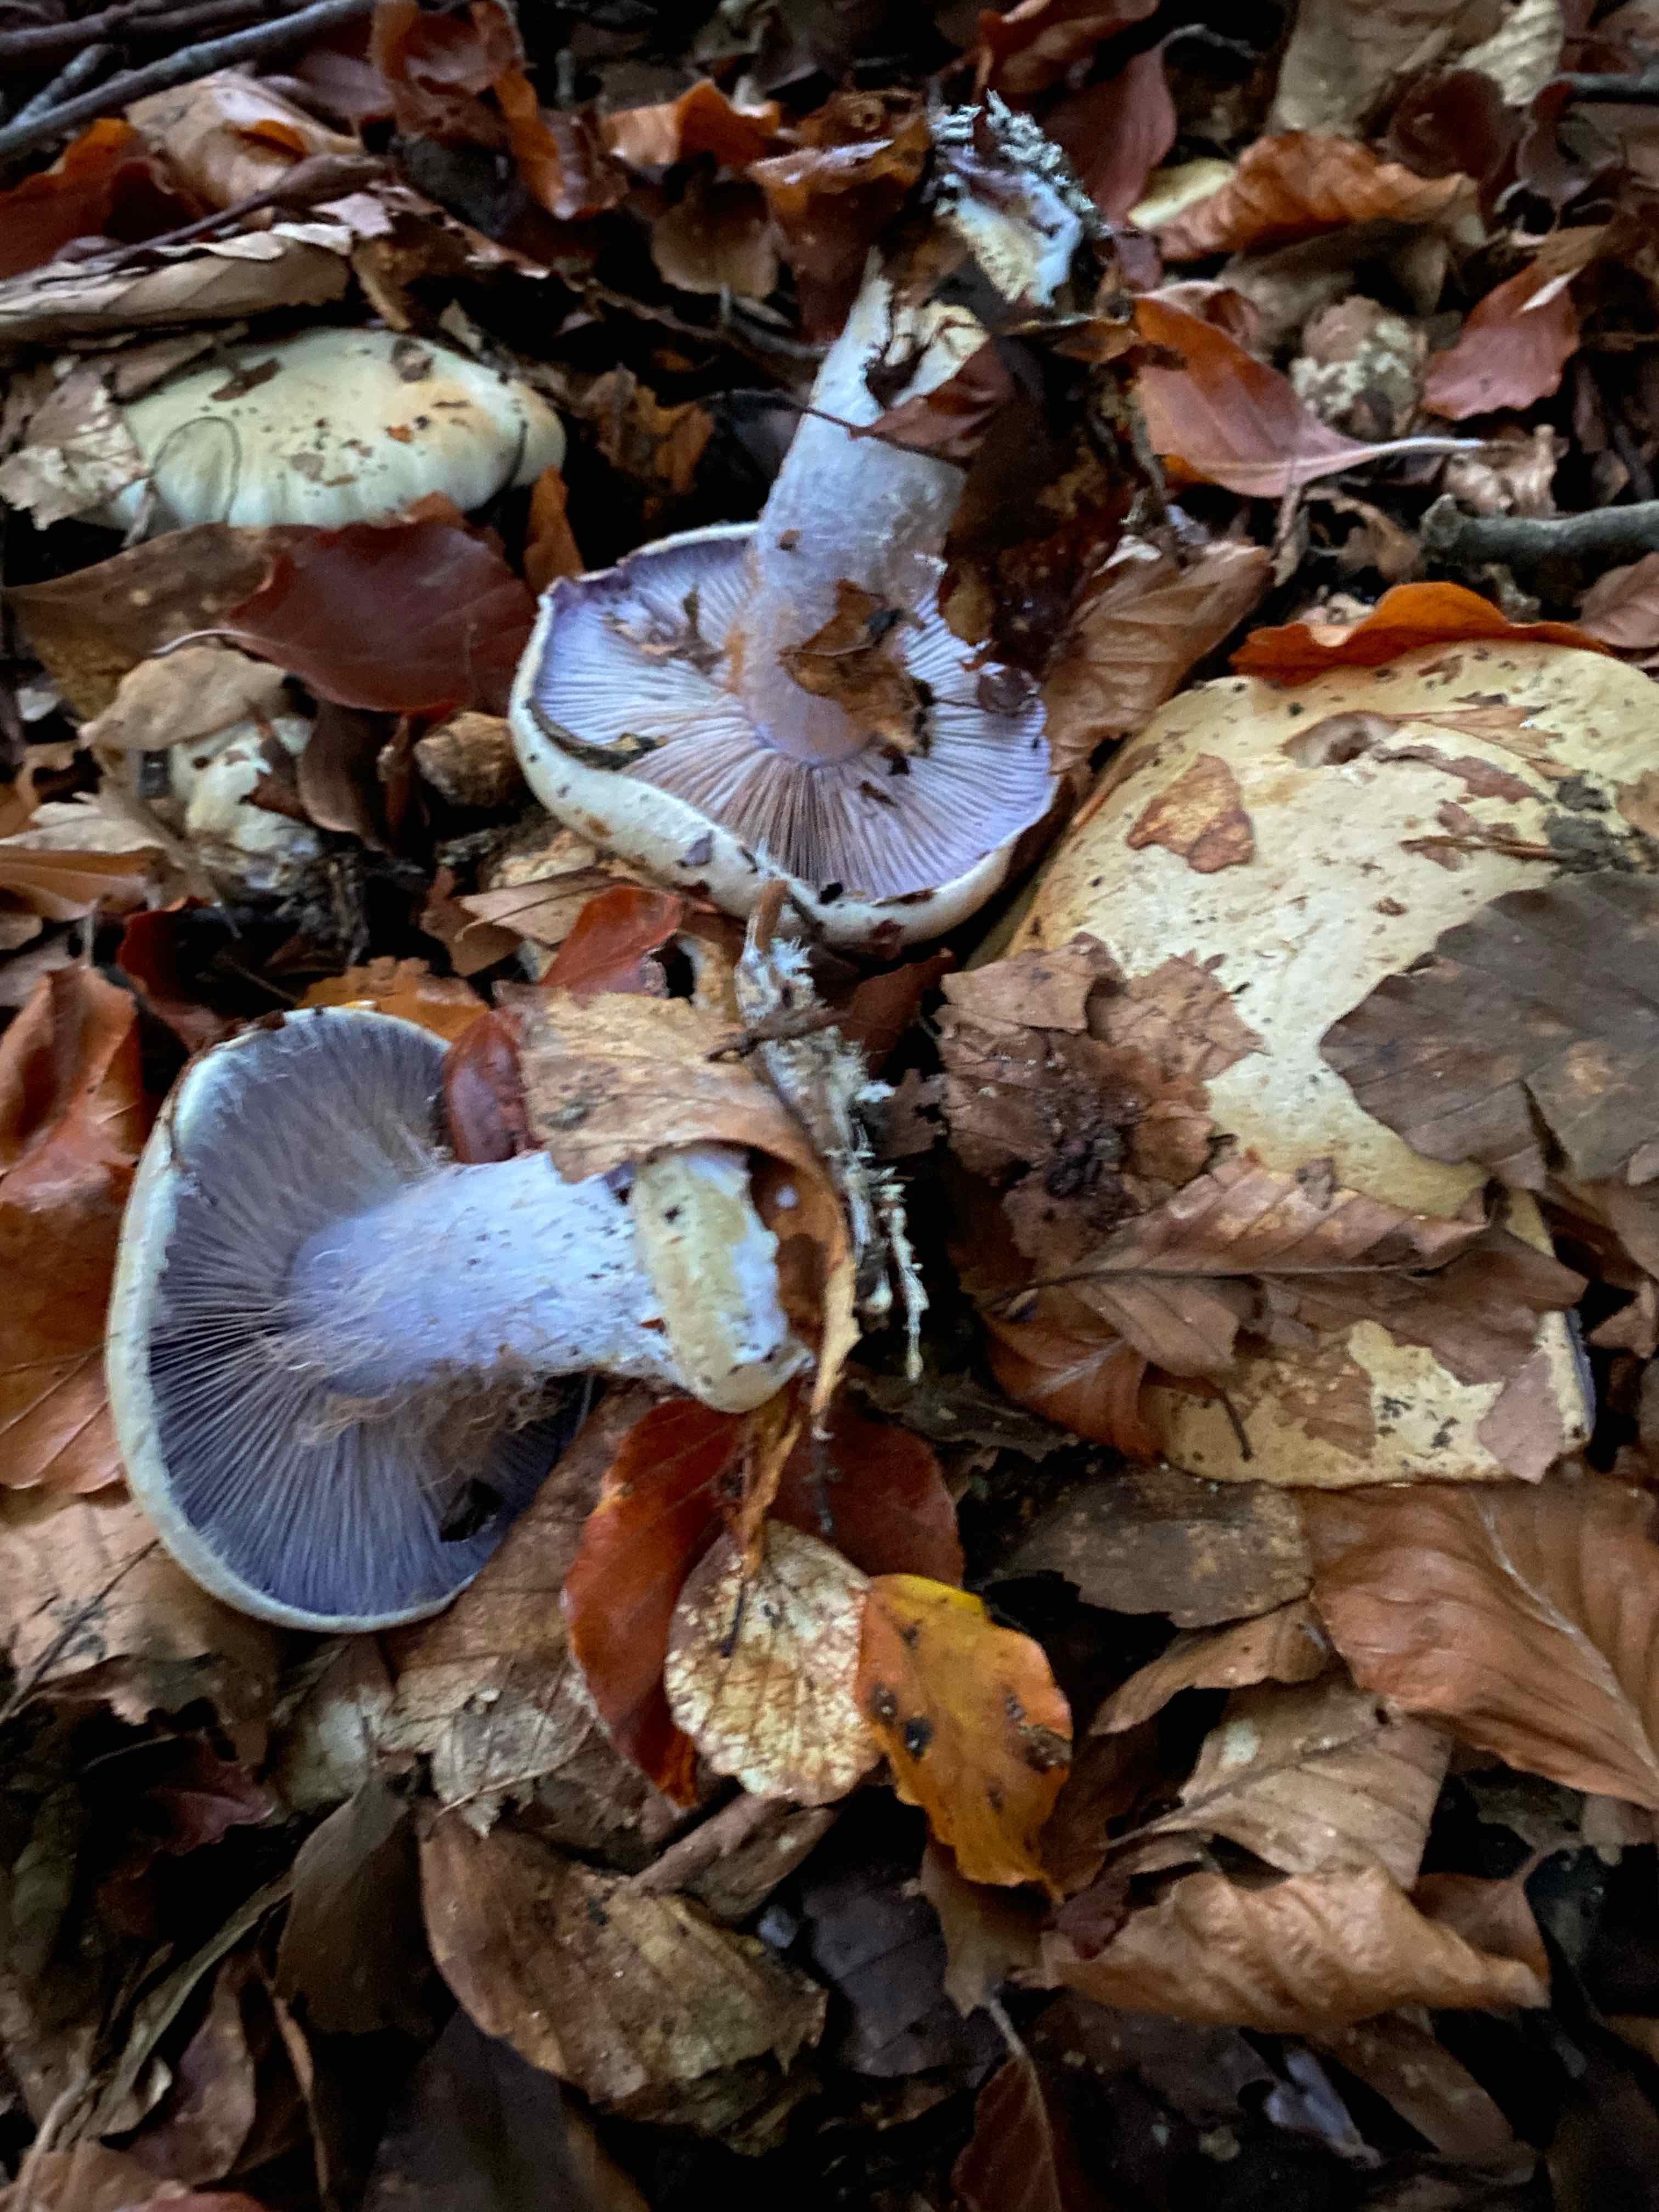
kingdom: Fungi
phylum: Basidiomycota
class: Agaricomycetes
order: Agaricales
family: Cortinariaceae
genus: Cortinarius
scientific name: Cortinarius anserinus
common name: bøge-slørhat
